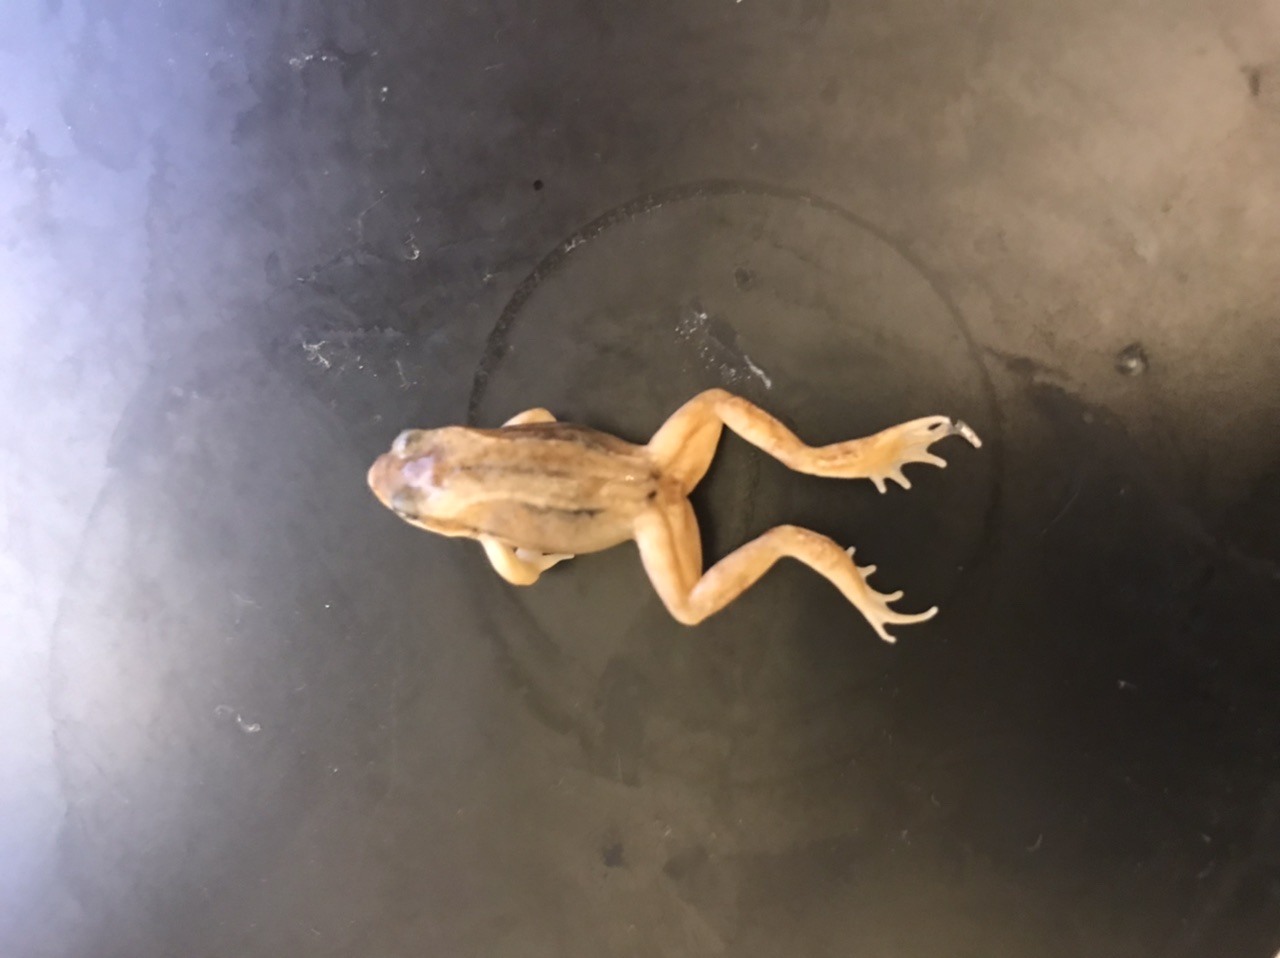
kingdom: Animalia
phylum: Chordata
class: Amphibia
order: Anura
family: Ranidae
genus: Rana
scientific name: Rana temporaria
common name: Common frog
